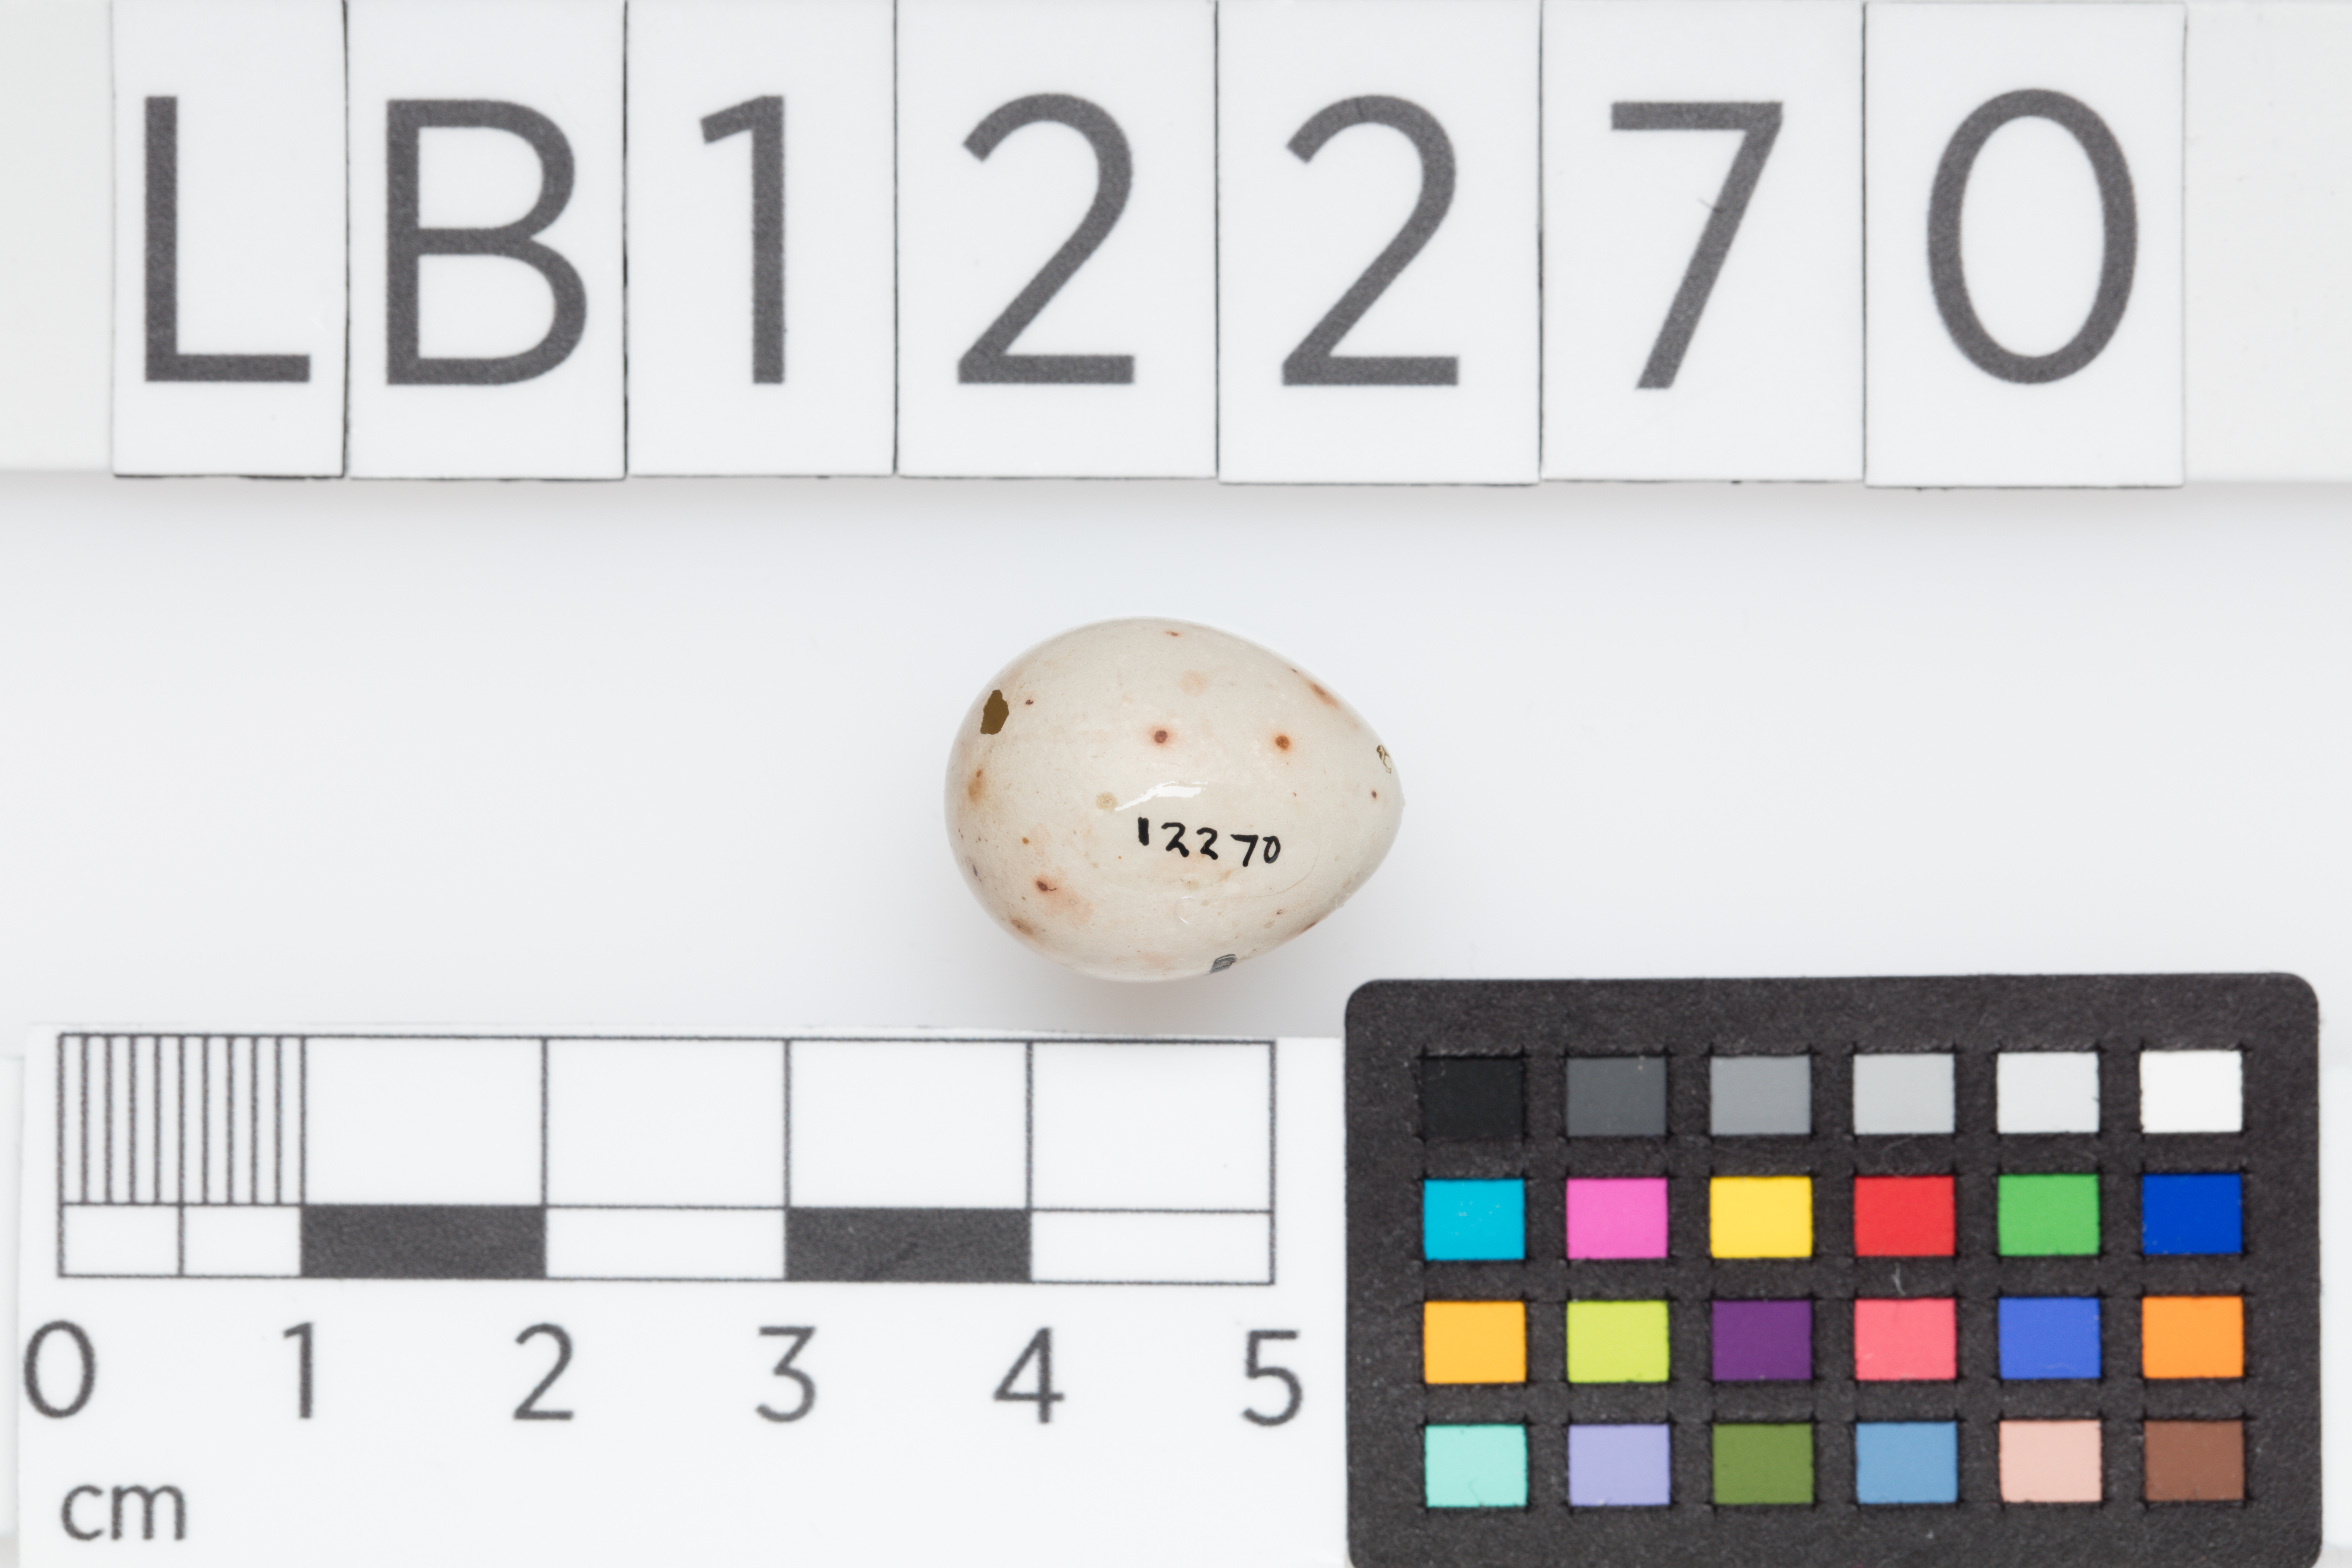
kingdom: Animalia
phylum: Chordata
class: Aves
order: Passeriformes
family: Fringillidae
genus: Fringilla
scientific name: Fringilla coelebs
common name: Common chaffinch
